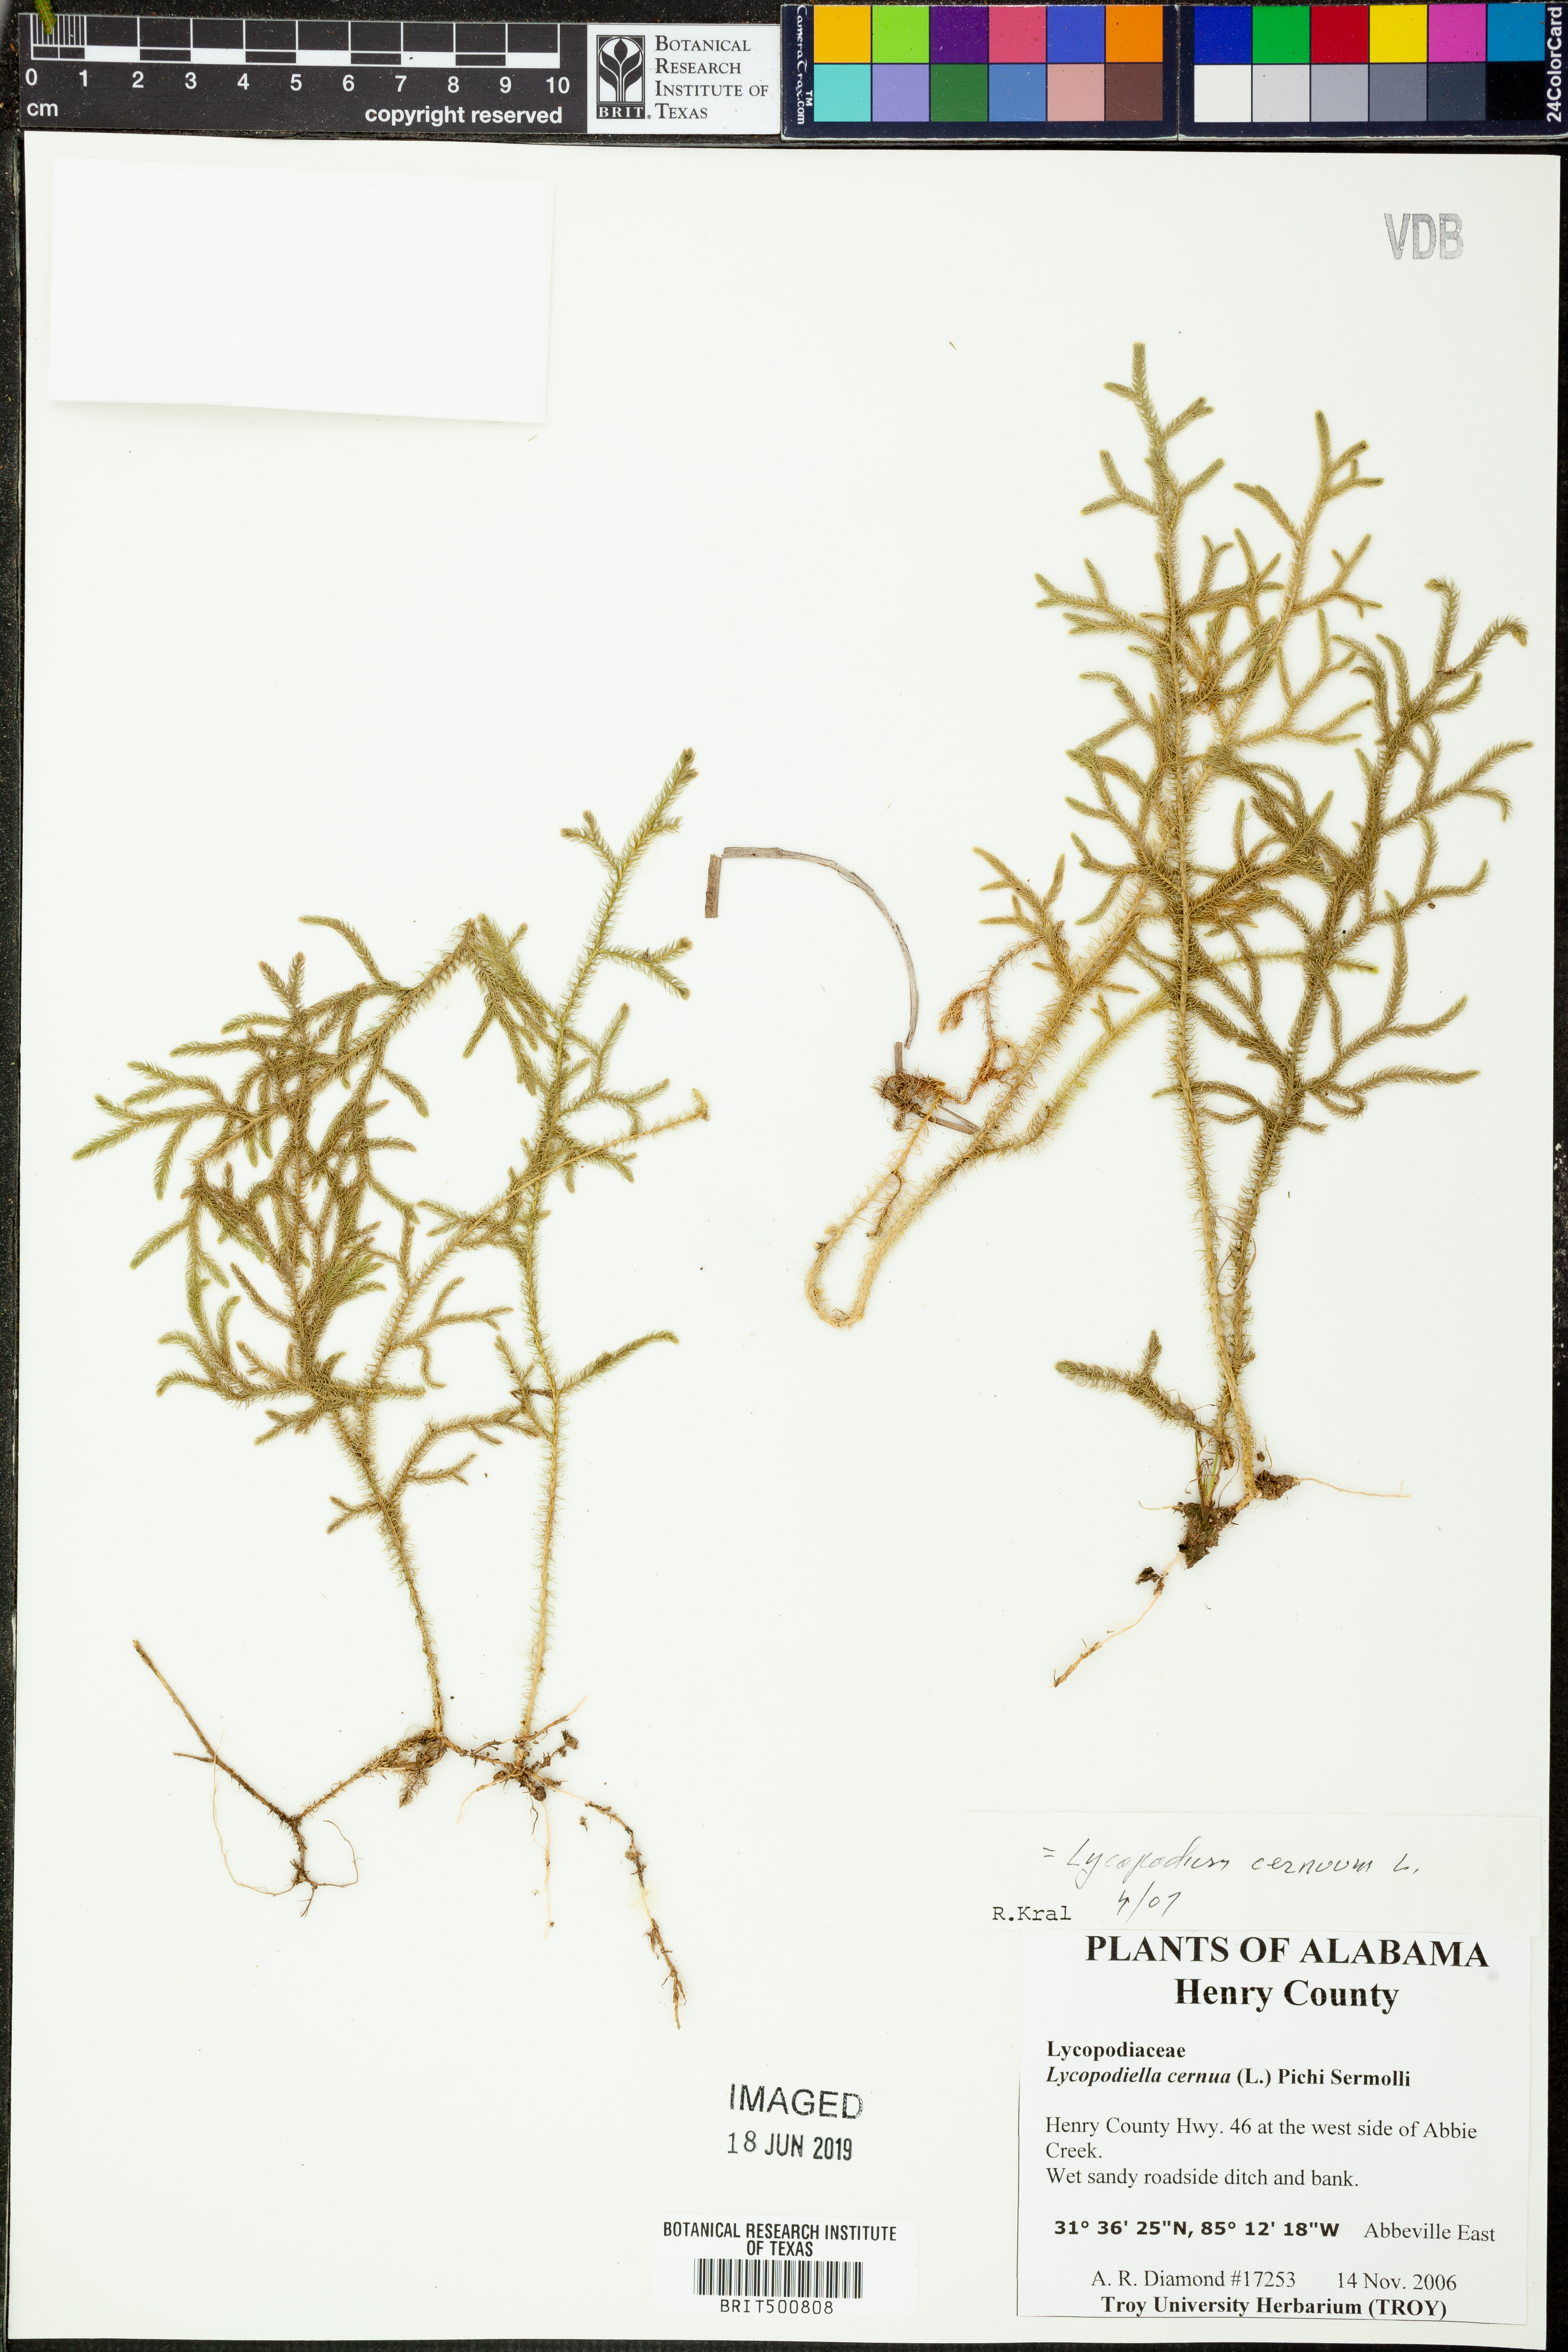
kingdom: Plantae
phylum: Tracheophyta
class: Lycopodiopsida
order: Lycopodiales
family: Lycopodiaceae
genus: Palhinhaea
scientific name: Palhinhaea cernua
